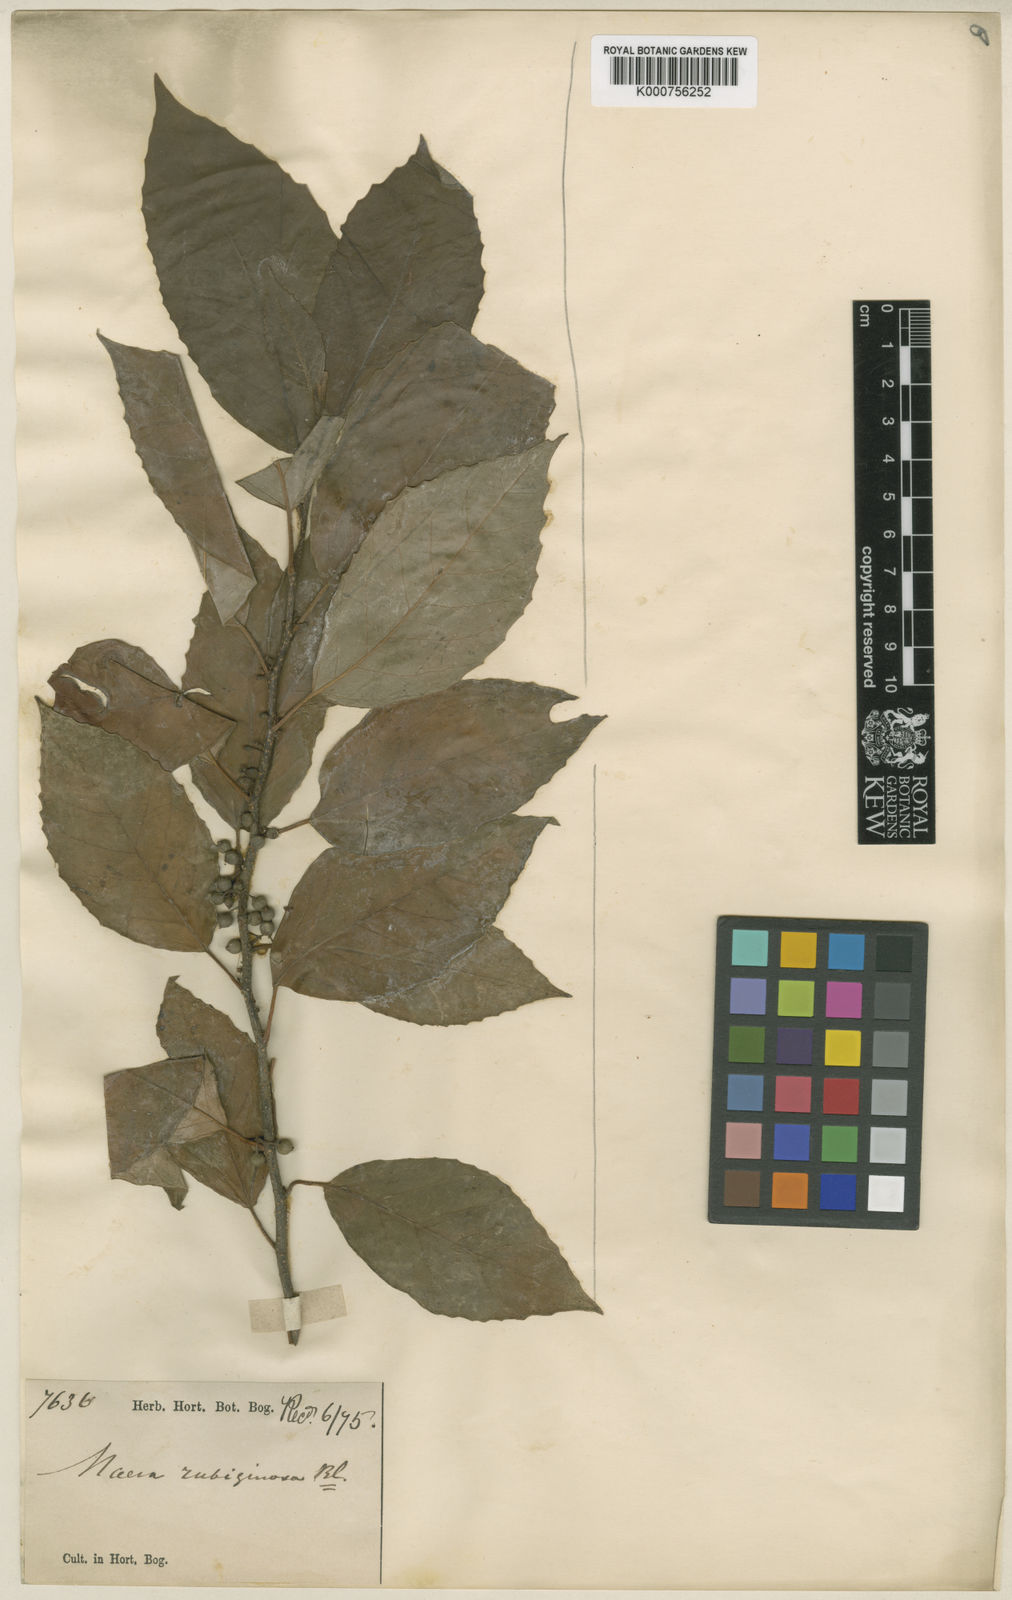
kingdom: Plantae
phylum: Tracheophyta
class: Magnoliopsida
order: Ericales
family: Primulaceae
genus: Maesa
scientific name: Maesa rubiginosa
